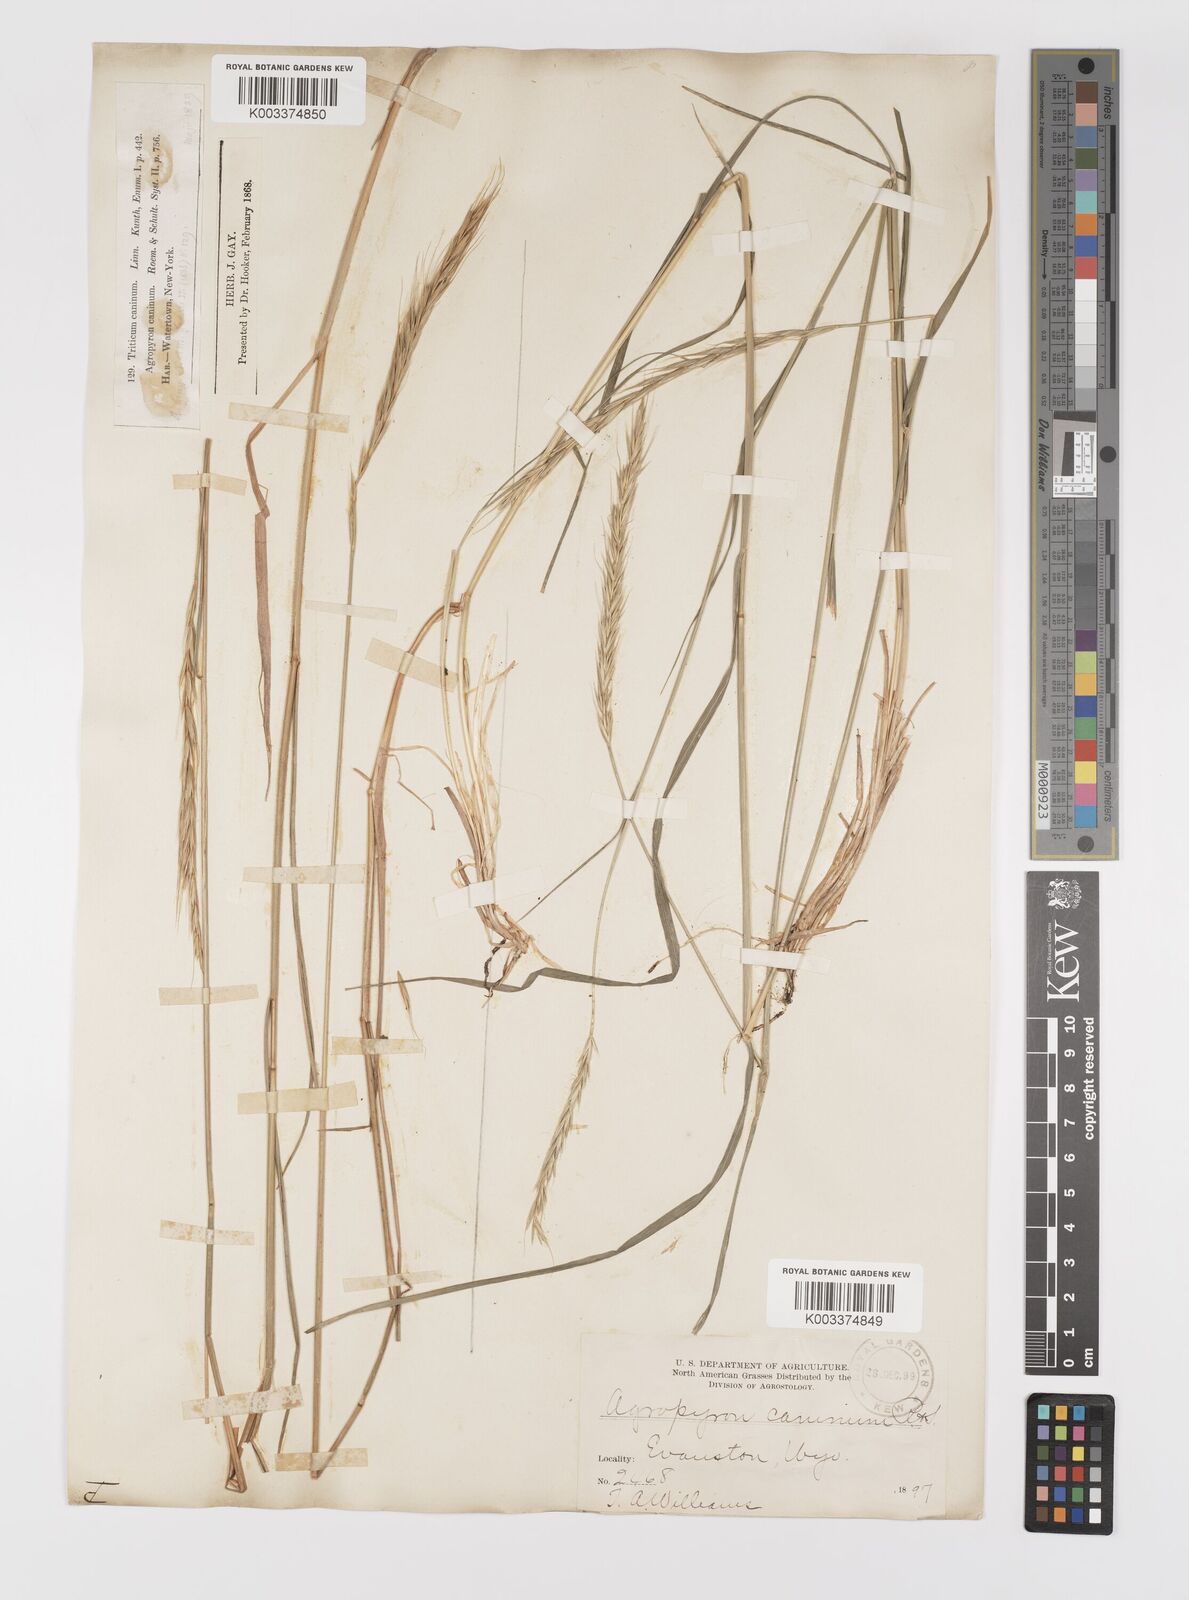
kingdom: Plantae
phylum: Tracheophyta
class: Liliopsida
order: Poales
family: Poaceae
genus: Elymus
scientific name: Elymus violaceus
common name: Arctic wheatgrass
